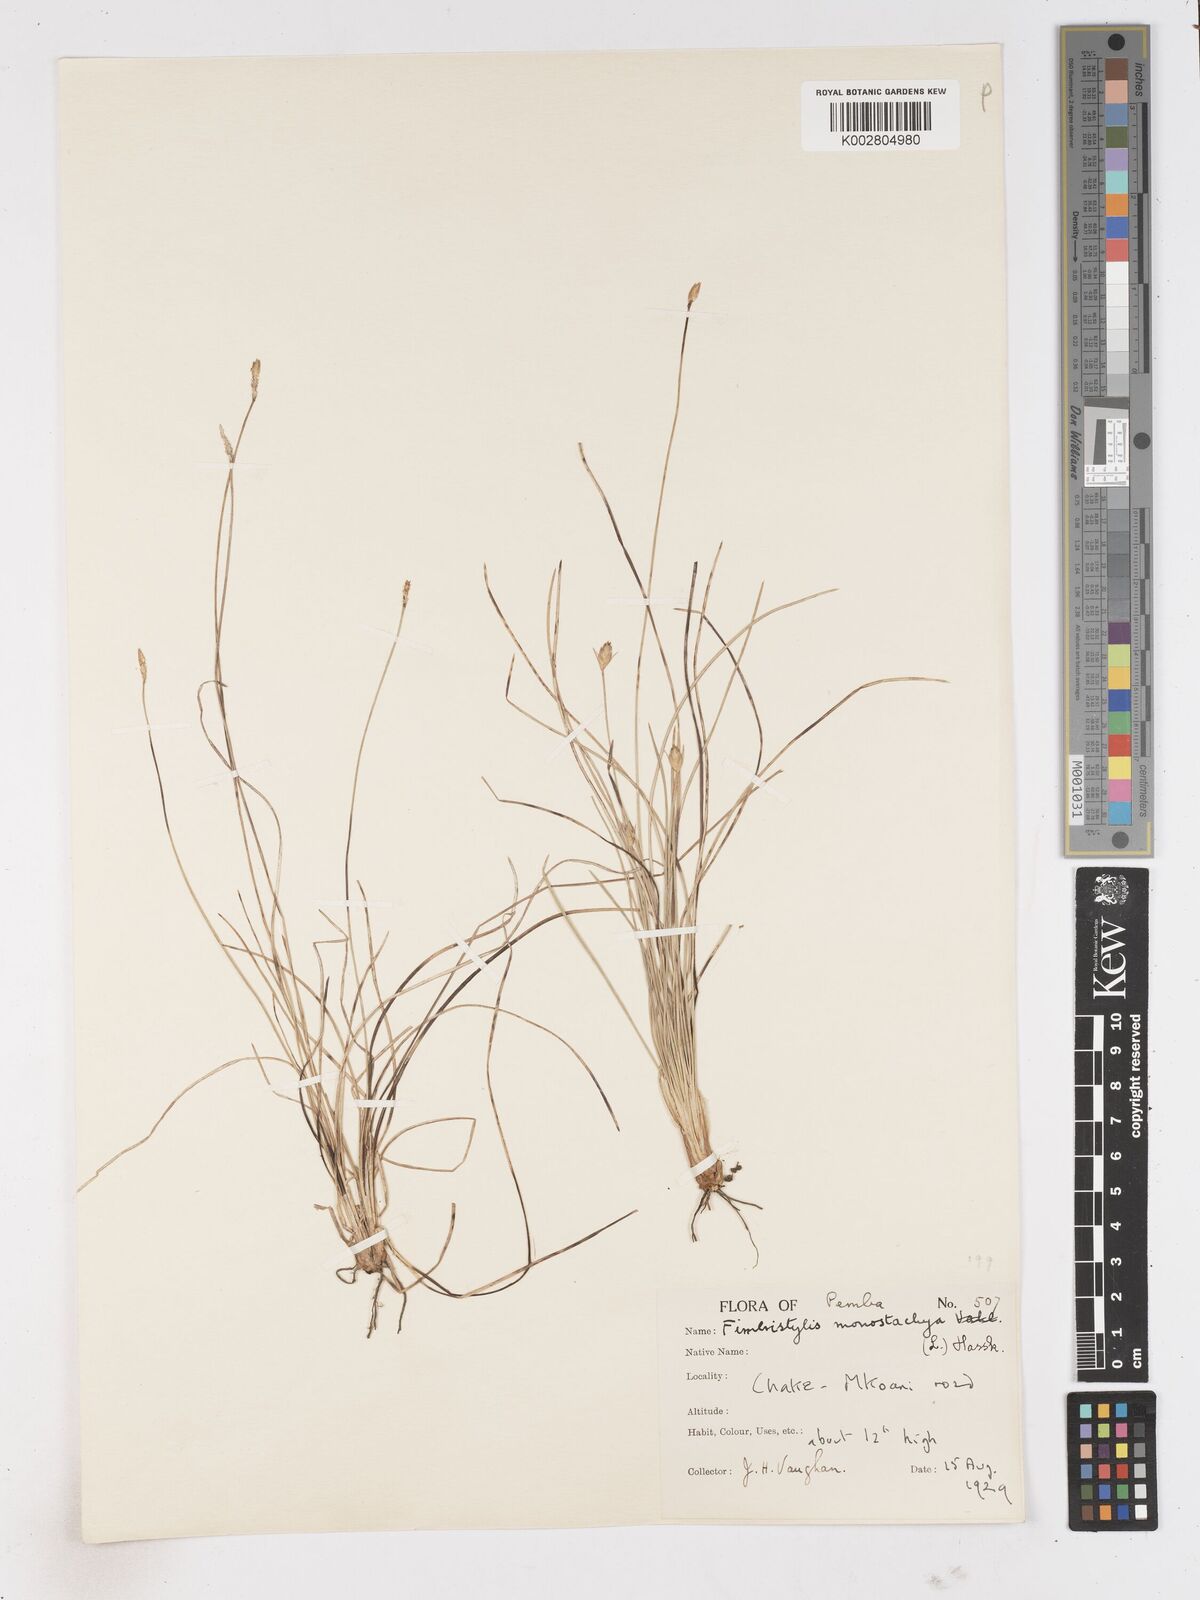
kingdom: Plantae
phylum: Tracheophyta
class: Liliopsida
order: Poales
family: Cyperaceae
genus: Abildgaardia
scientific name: Abildgaardia ovata
